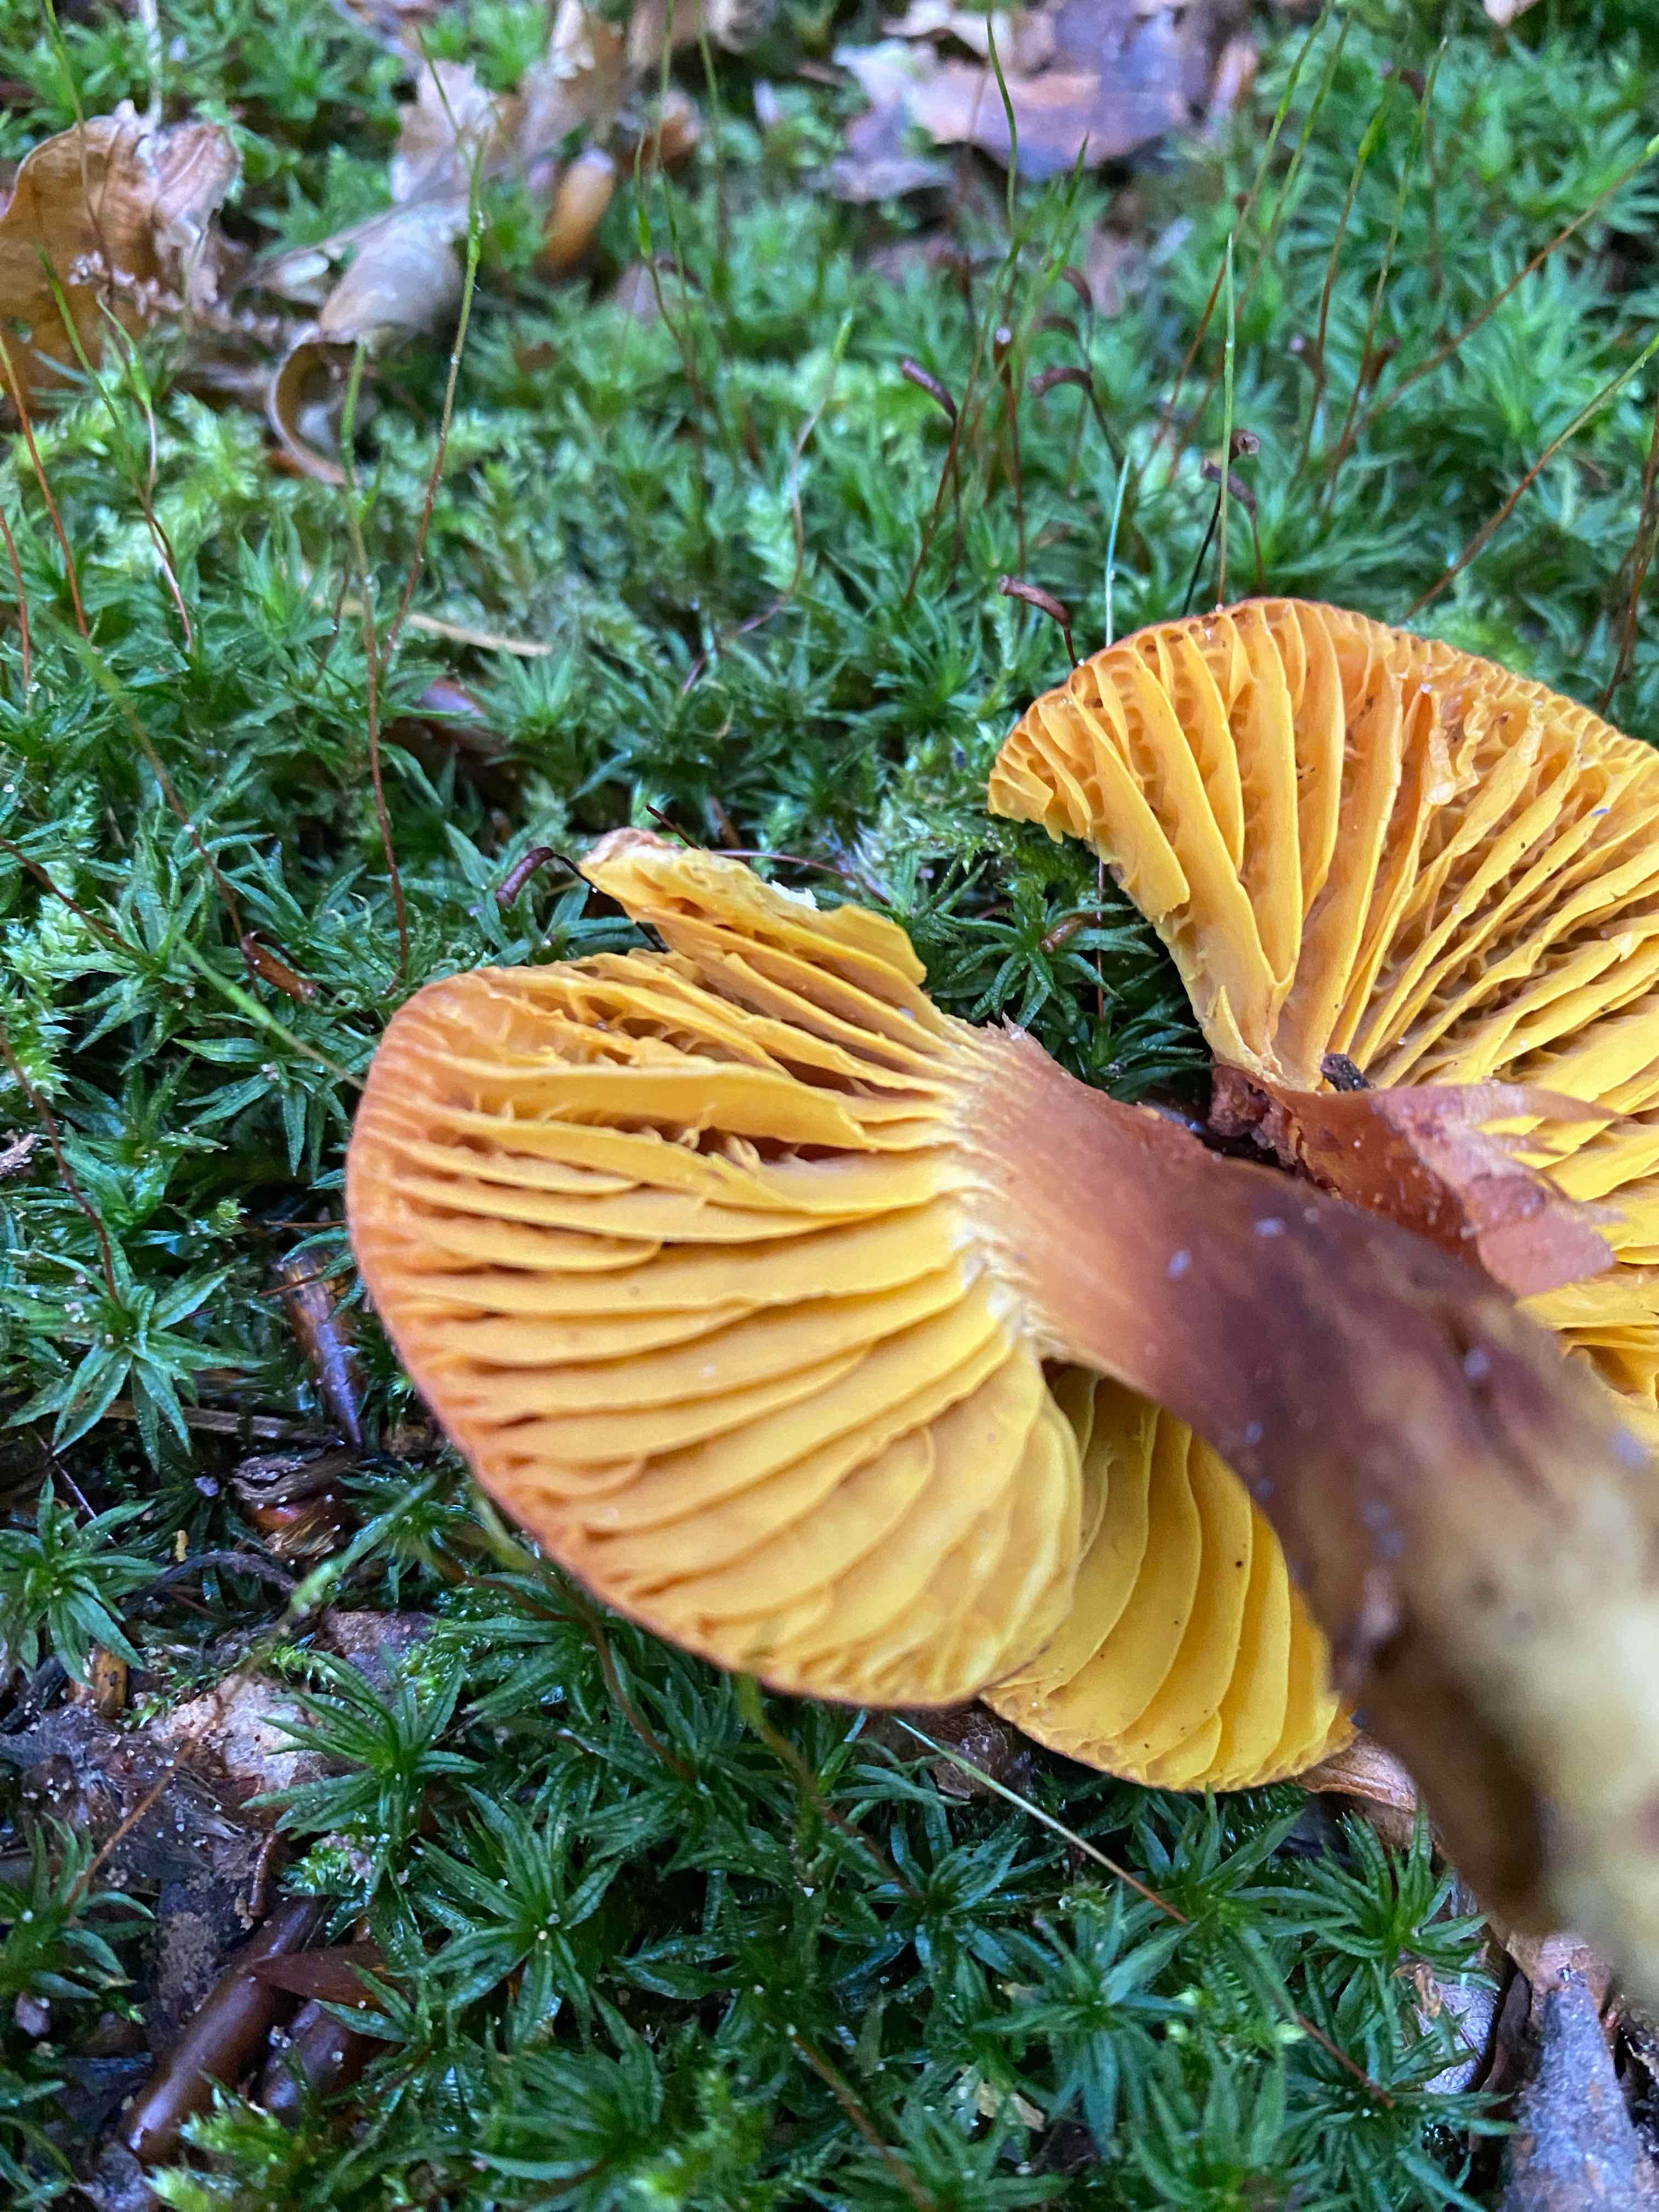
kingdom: Fungi
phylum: Basidiomycota
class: Agaricomycetes
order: Boletales
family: Boletaceae
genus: Phylloporus
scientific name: Phylloporus pelletieri
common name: lamelrørhat
